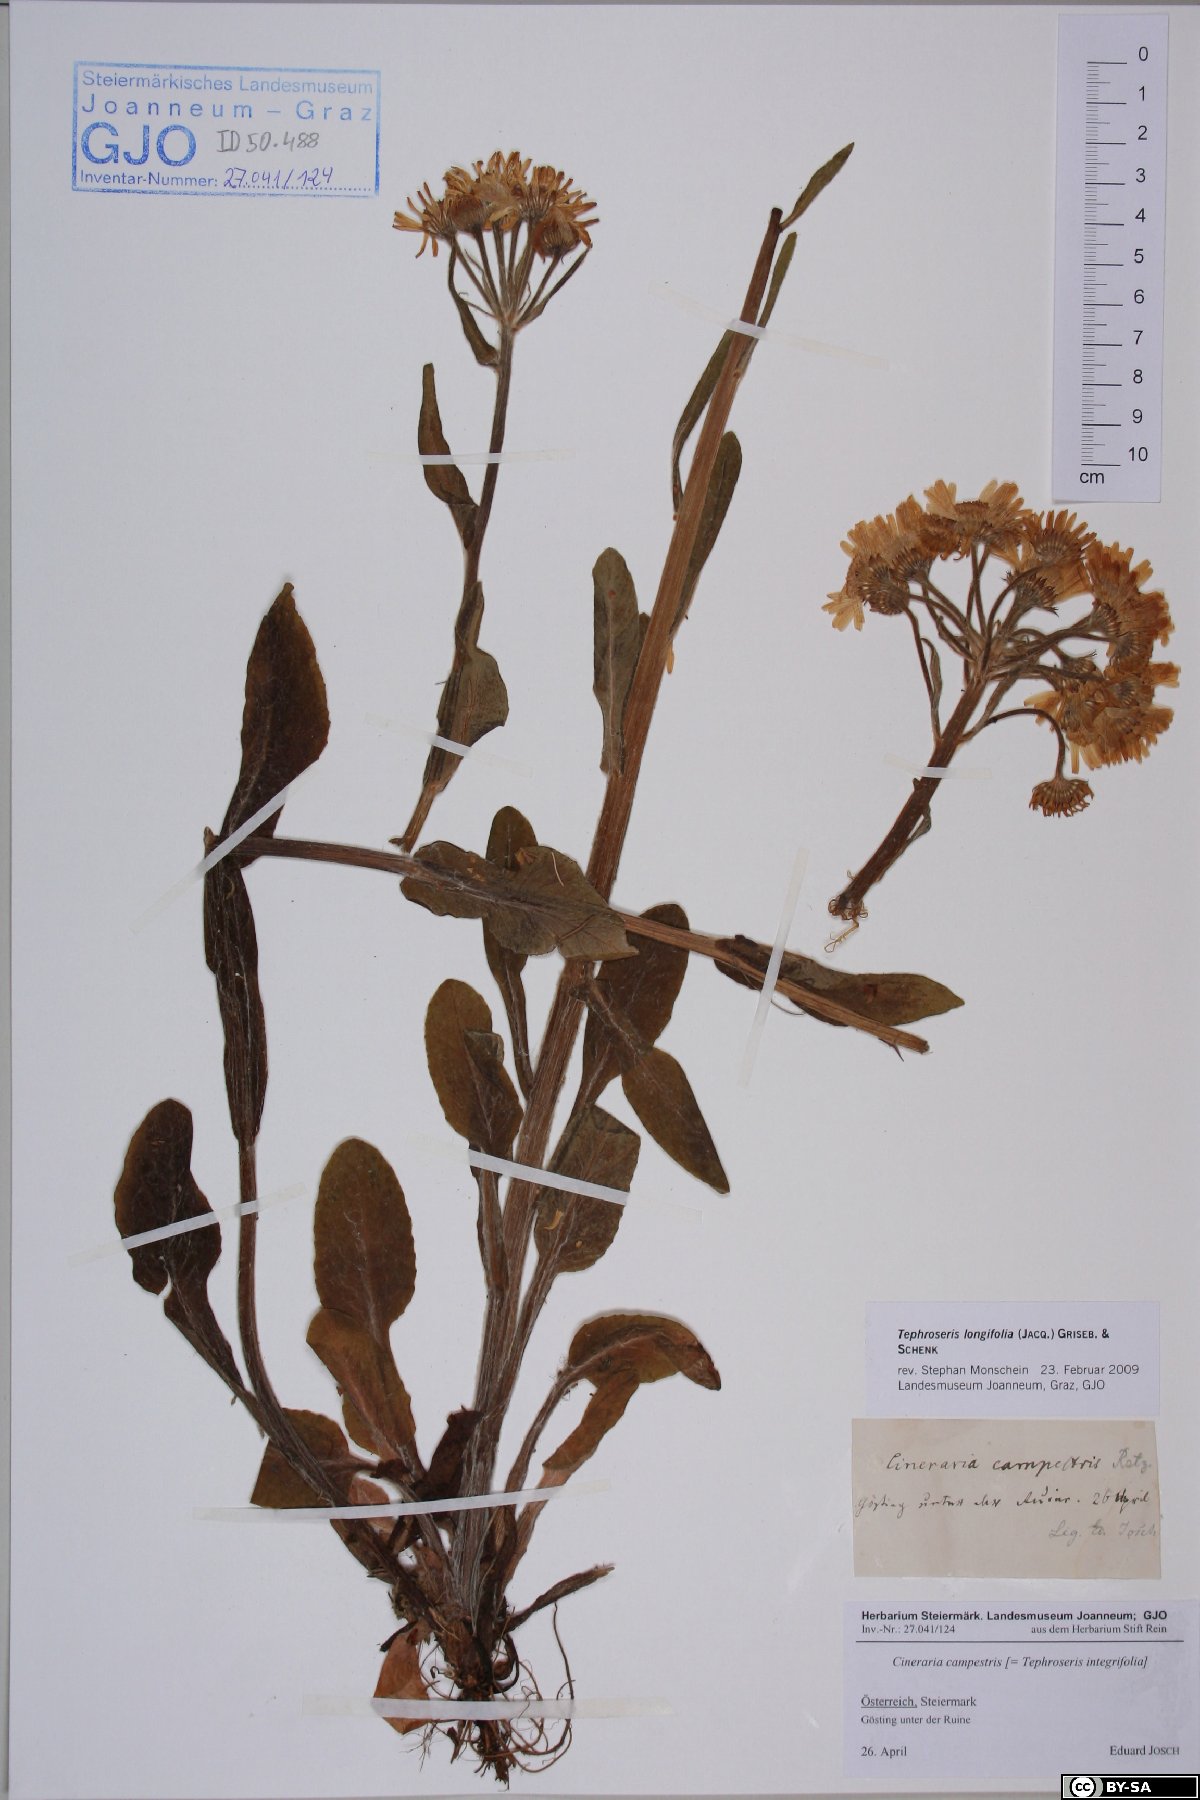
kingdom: Plantae
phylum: Tracheophyta
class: Magnoliopsida
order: Asterales
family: Asteraceae
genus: Tephroseris
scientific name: Tephroseris longifolia
